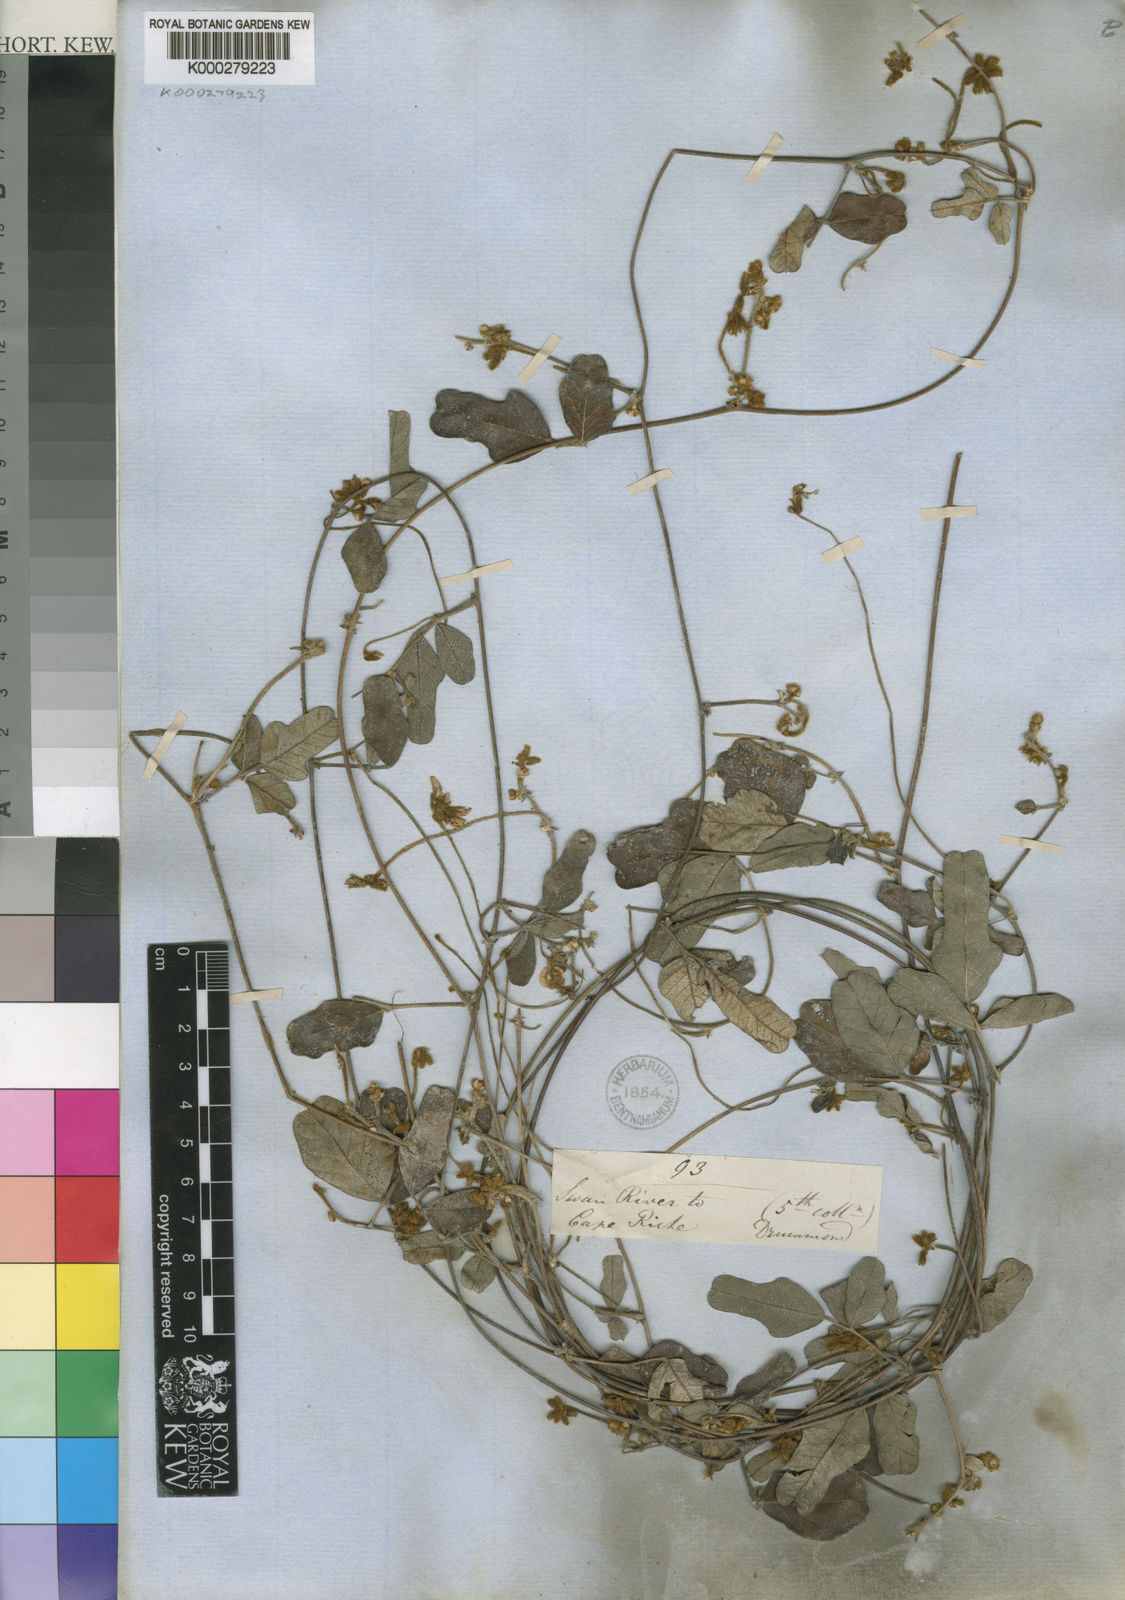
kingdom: Plantae
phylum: Tracheophyta
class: Magnoliopsida
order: Fabales
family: Fabaceae
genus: Kennedia
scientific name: Kennedia coccinea
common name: Coralvine
